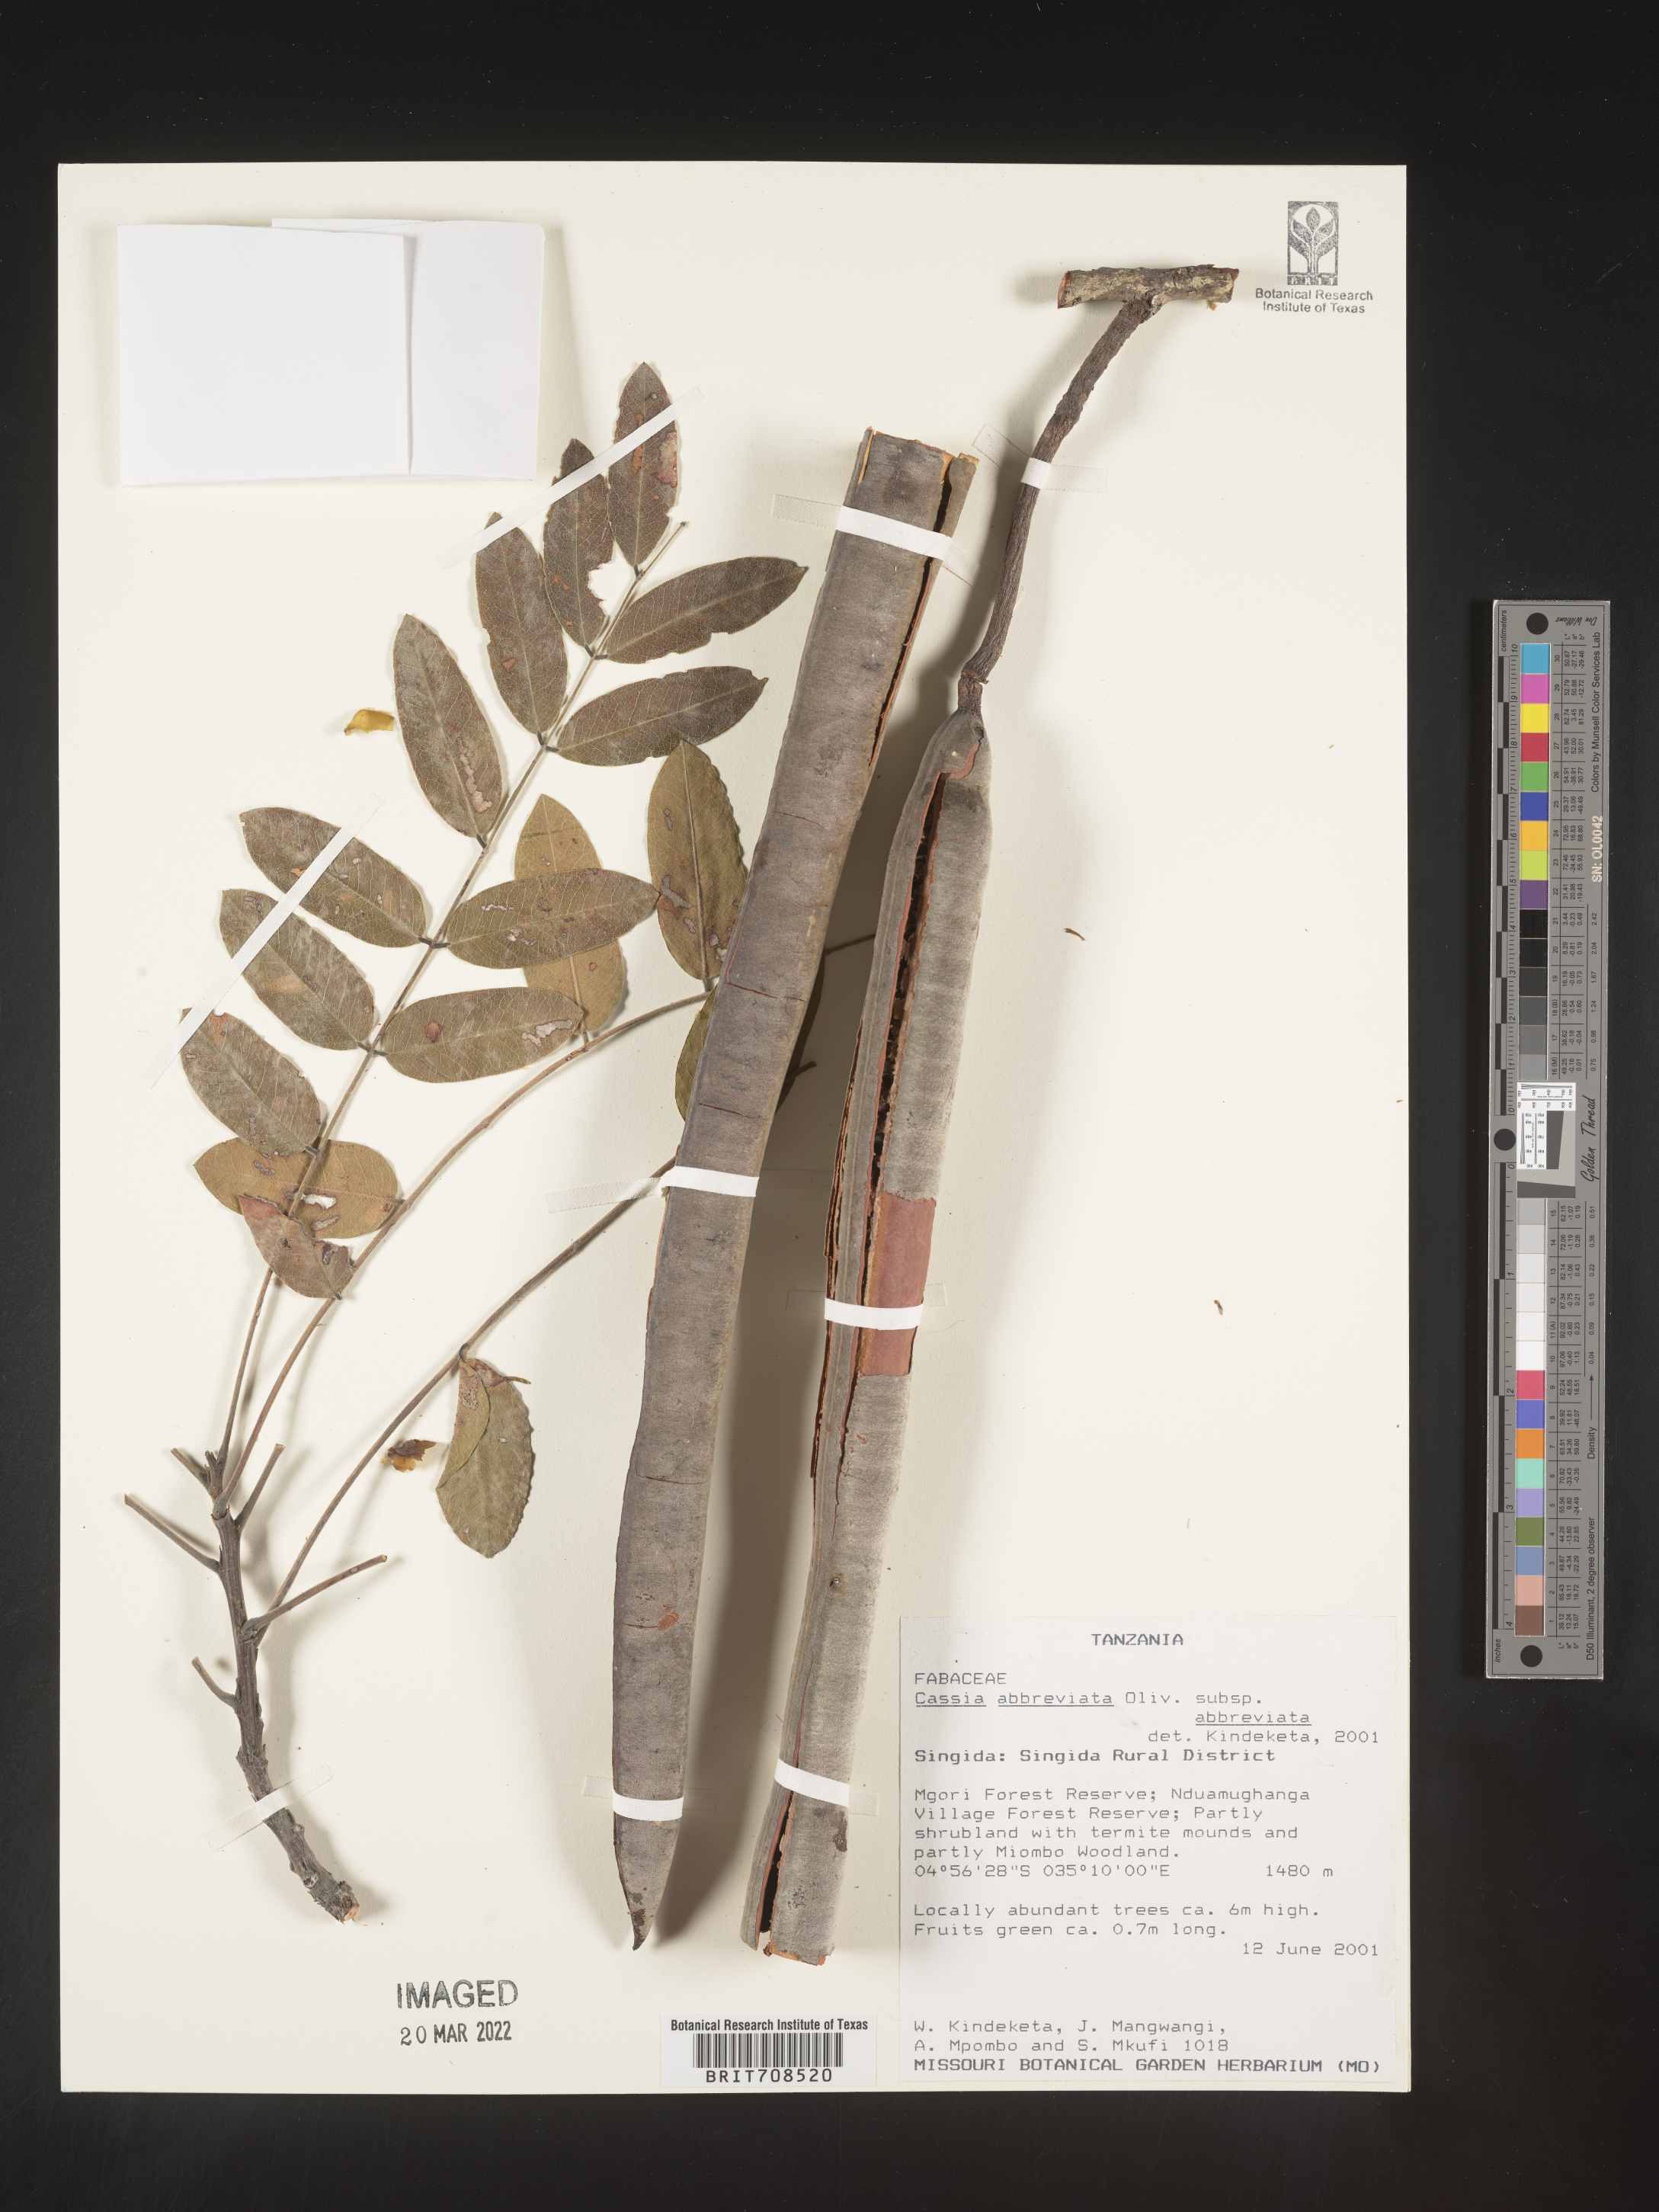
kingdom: Plantae
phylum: Tracheophyta
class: Magnoliopsida
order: Fabales
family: Fabaceae
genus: Cassia
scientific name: Cassia
